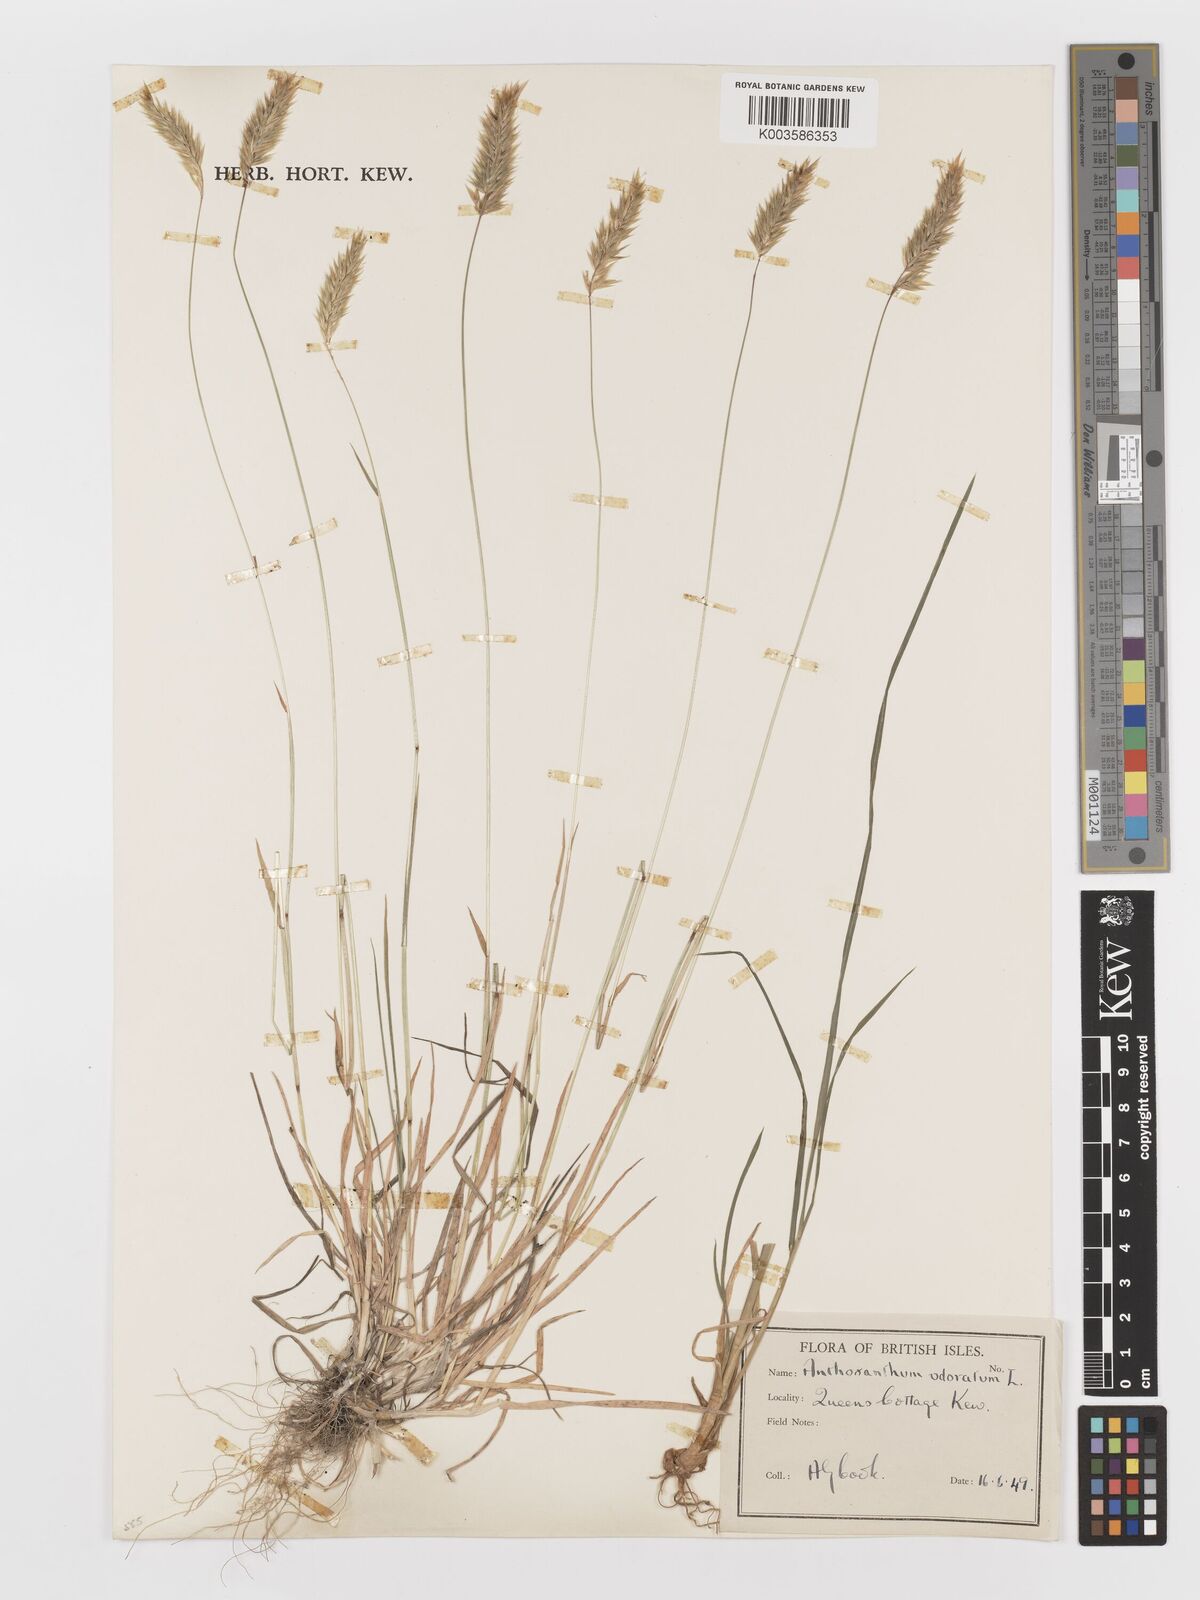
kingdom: Plantae
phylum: Tracheophyta
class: Liliopsida
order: Poales
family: Poaceae
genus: Anthoxanthum
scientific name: Anthoxanthum odoratum
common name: Sweet vernalgrass
